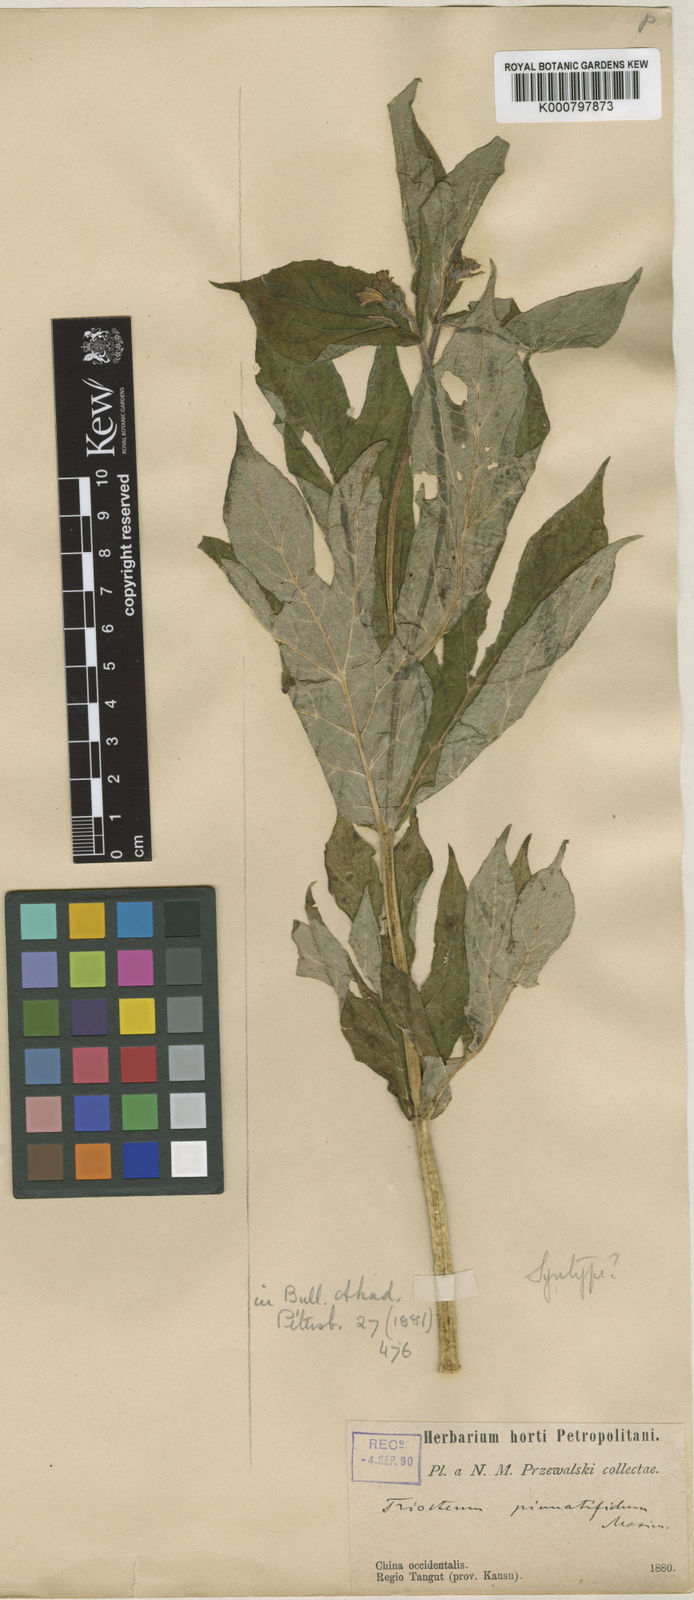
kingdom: Plantae
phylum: Tracheophyta
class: Magnoliopsida
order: Dipsacales
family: Caprifoliaceae
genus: Triosteum
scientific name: Triosteum pinnatifidum
